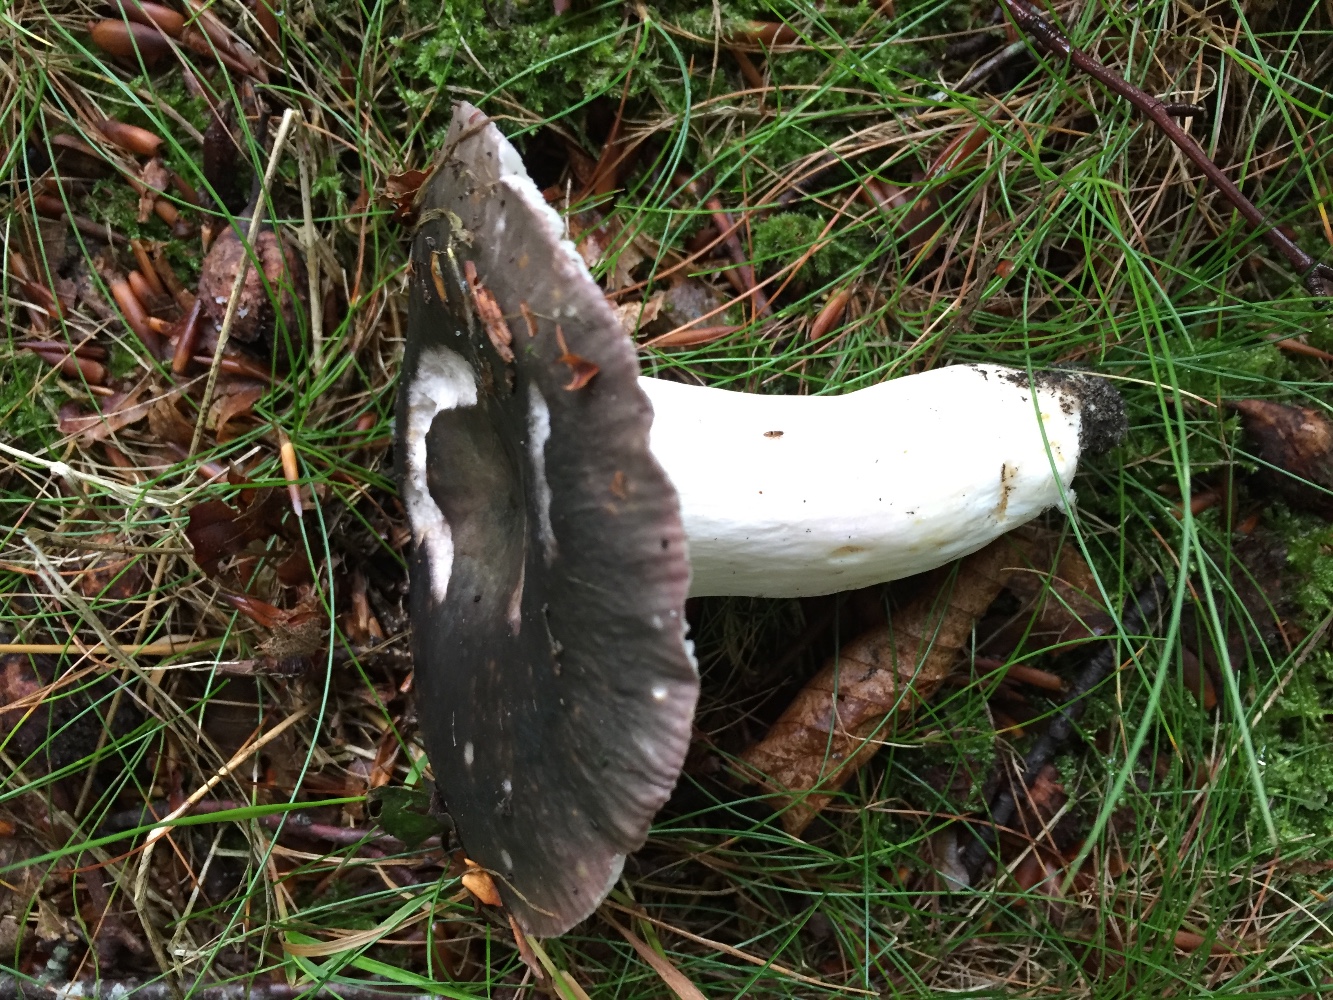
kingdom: Fungi
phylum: Basidiomycota
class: Agaricomycetes
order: Russulales
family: Russulaceae
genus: Russula
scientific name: Russula cyanoxantha
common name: broget skørhat
